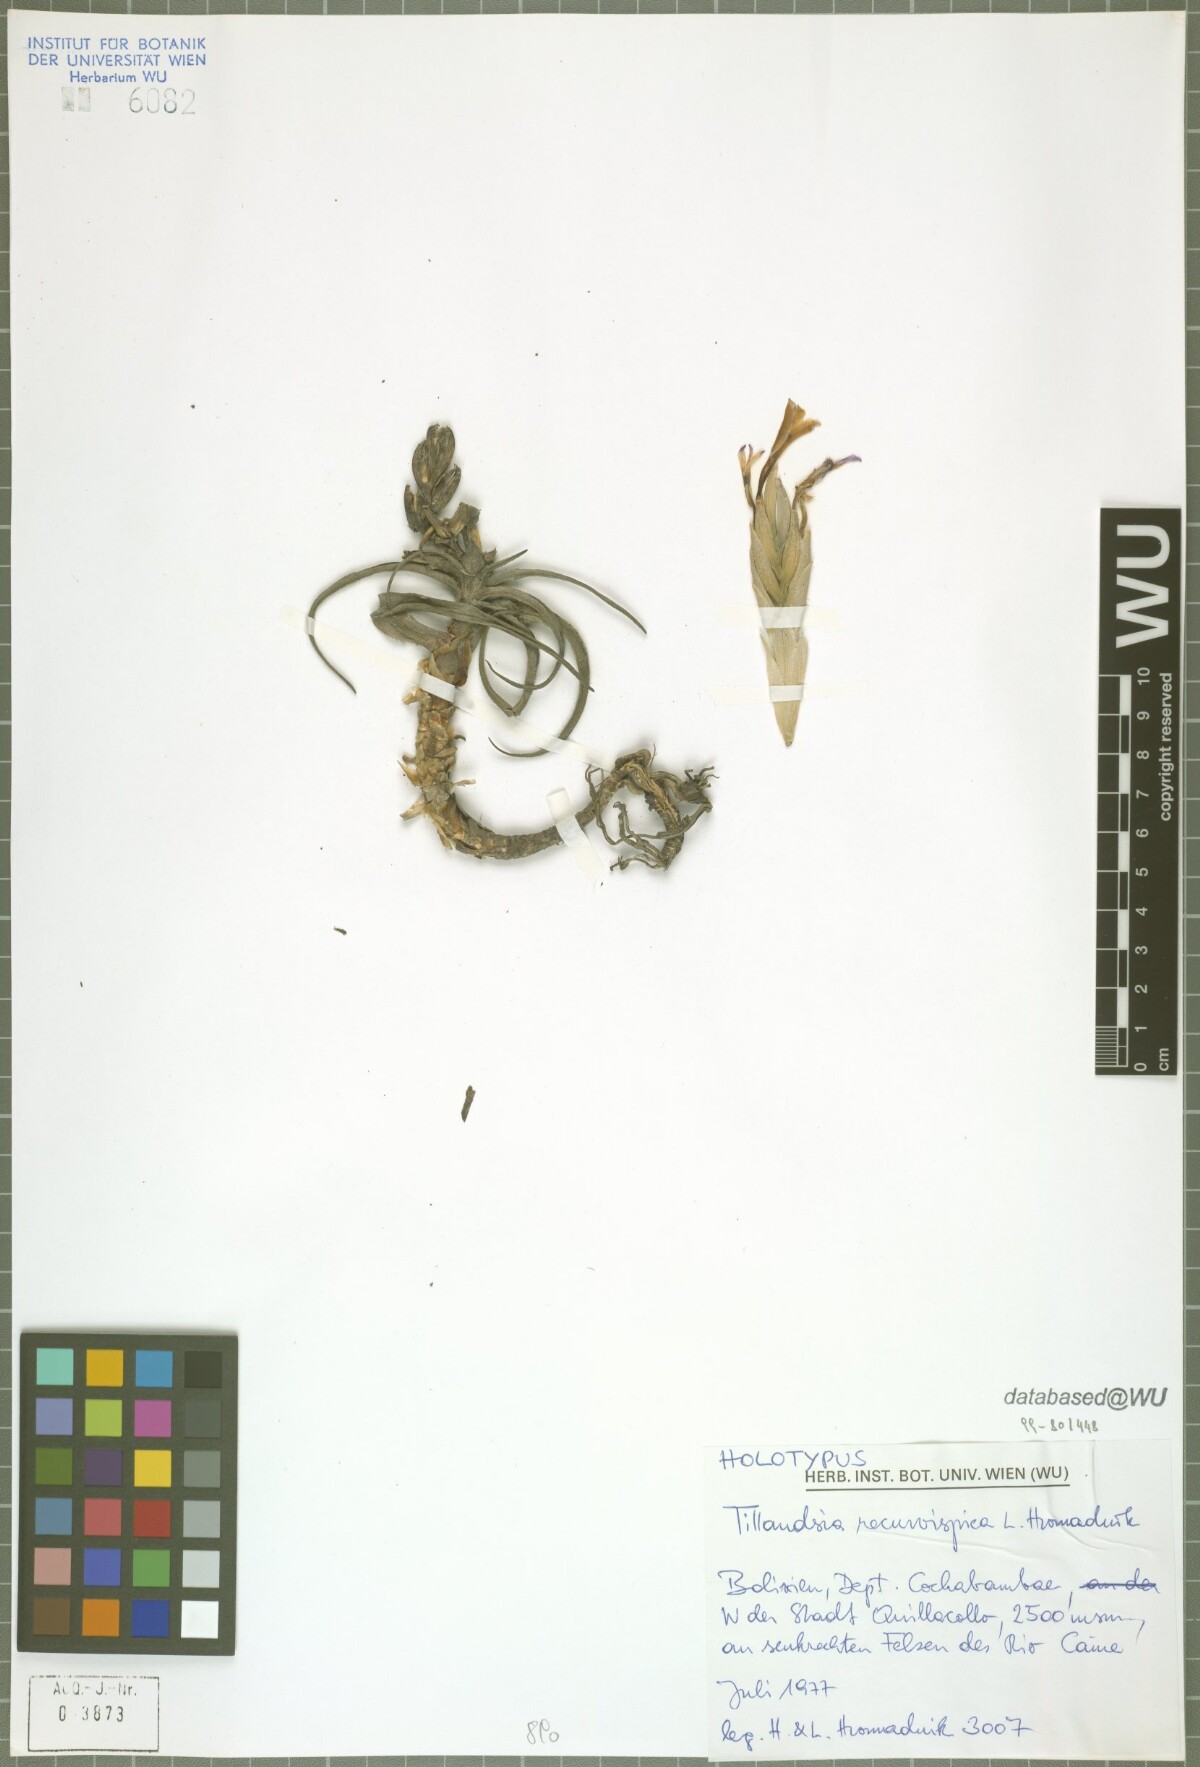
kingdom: Plantae
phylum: Tracheophyta
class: Liliopsida
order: Poales
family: Bromeliaceae
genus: Tillandsia
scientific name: Tillandsia recurvispica
